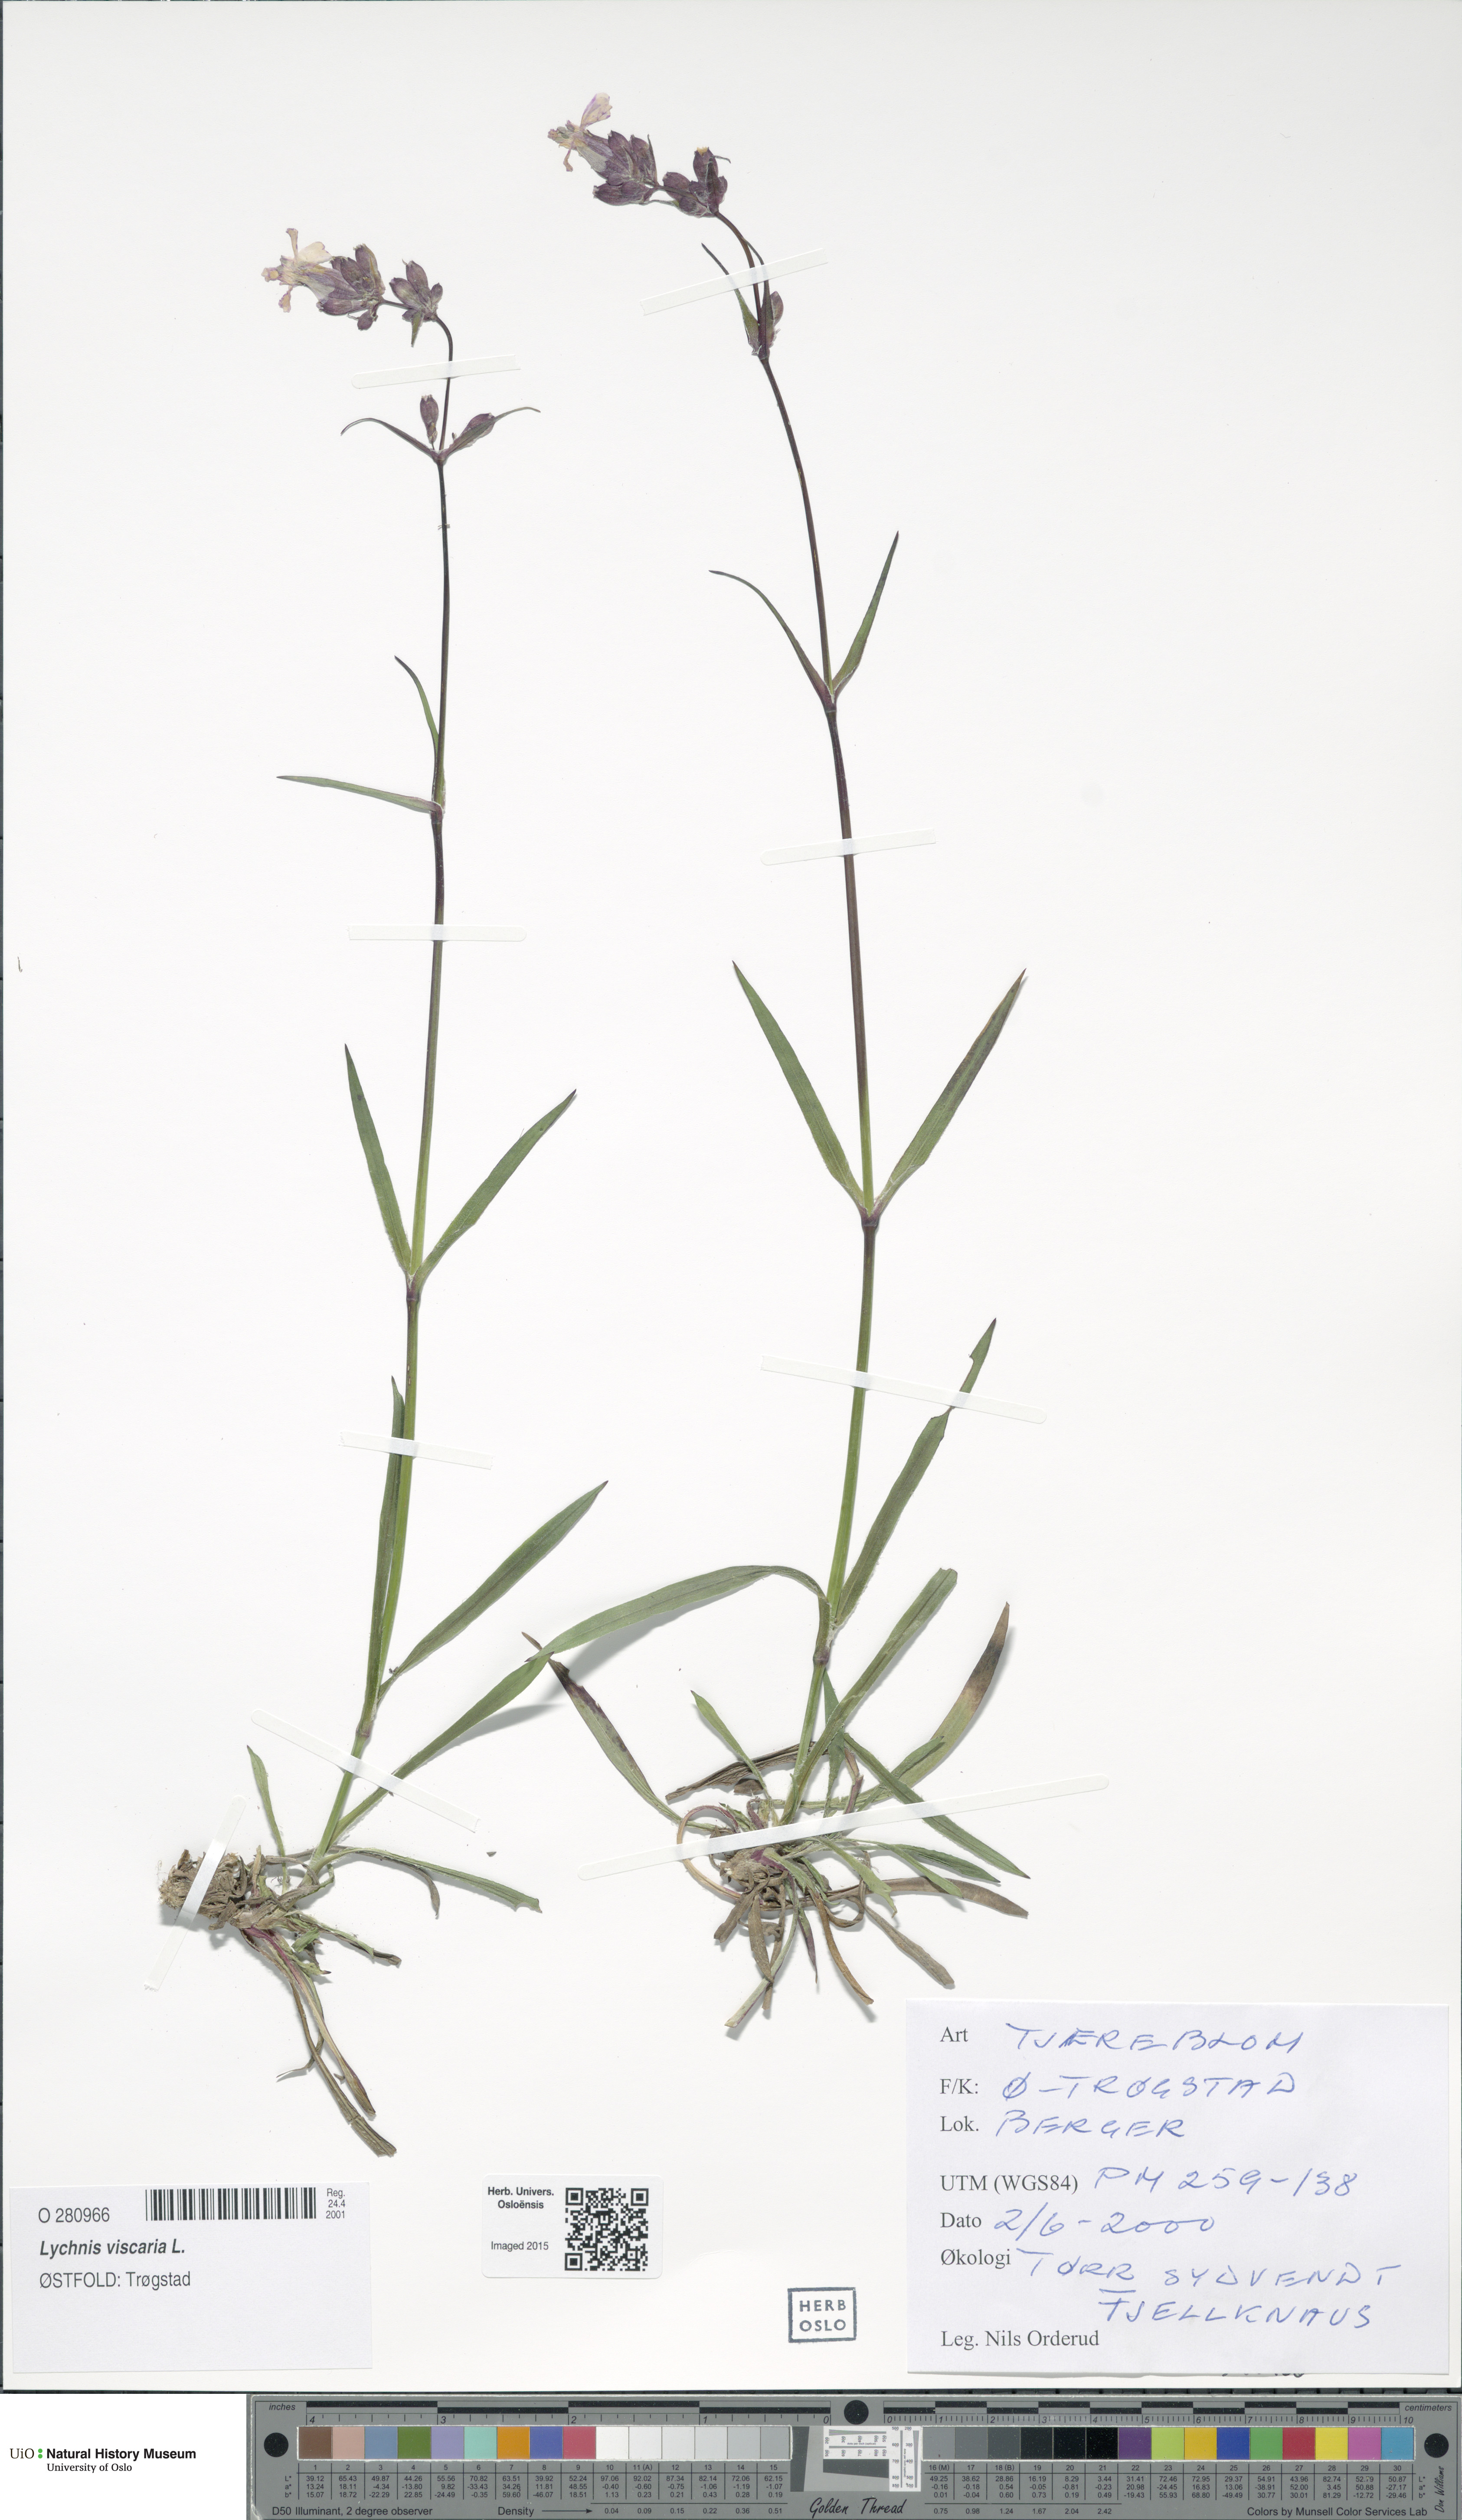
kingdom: Plantae
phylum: Tracheophyta
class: Magnoliopsida
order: Caryophyllales
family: Caryophyllaceae
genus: Viscaria
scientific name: Viscaria vulgaris
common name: Clammy campion
